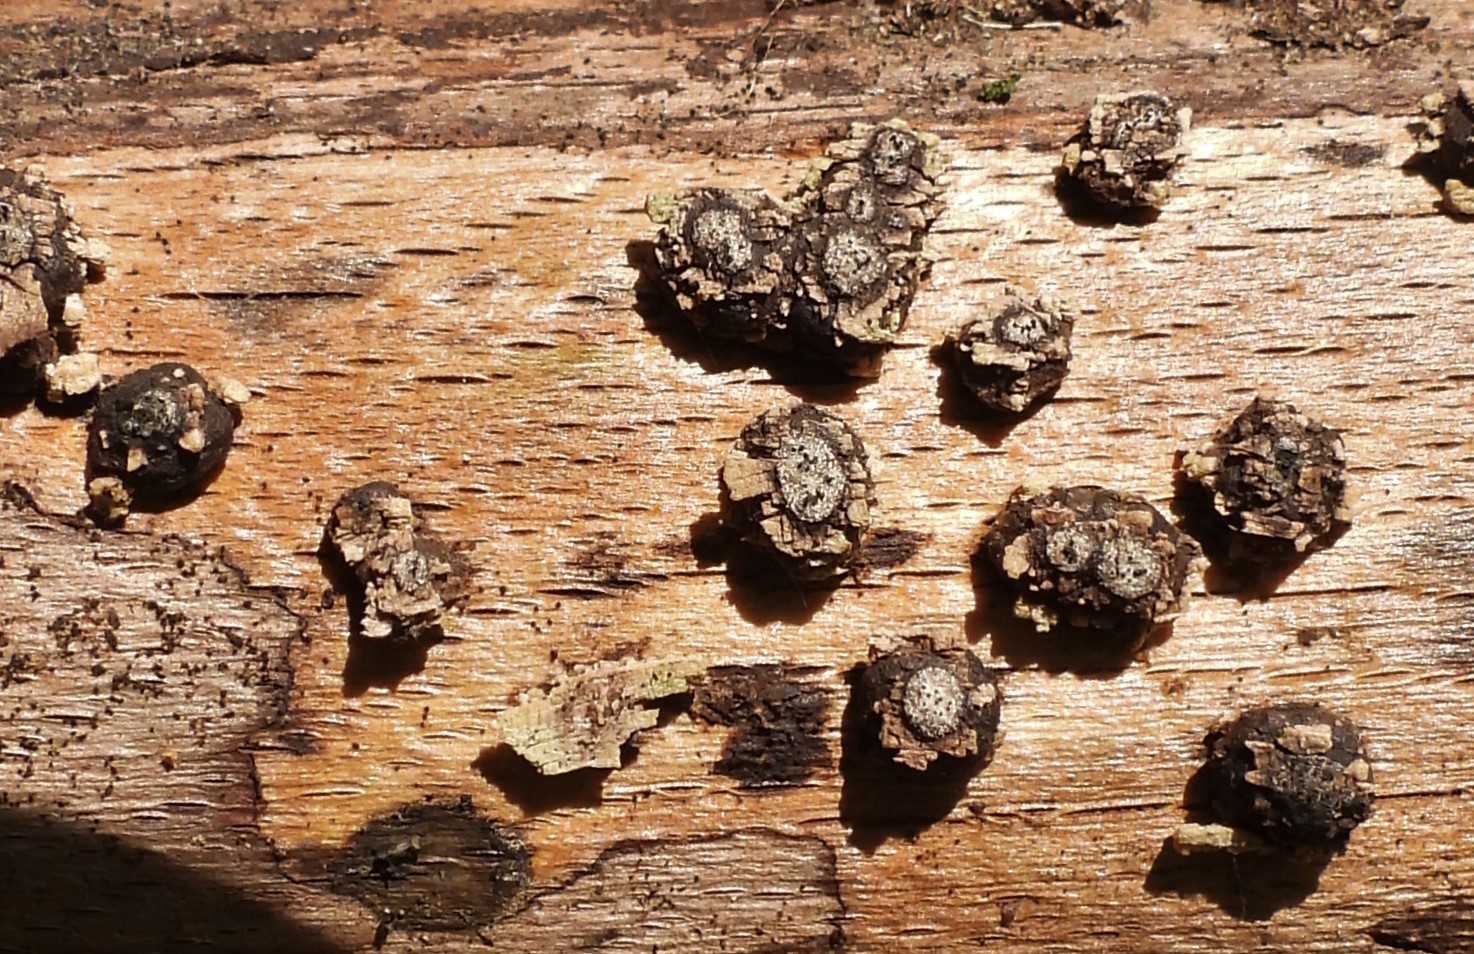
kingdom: Fungi
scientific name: Fungi
